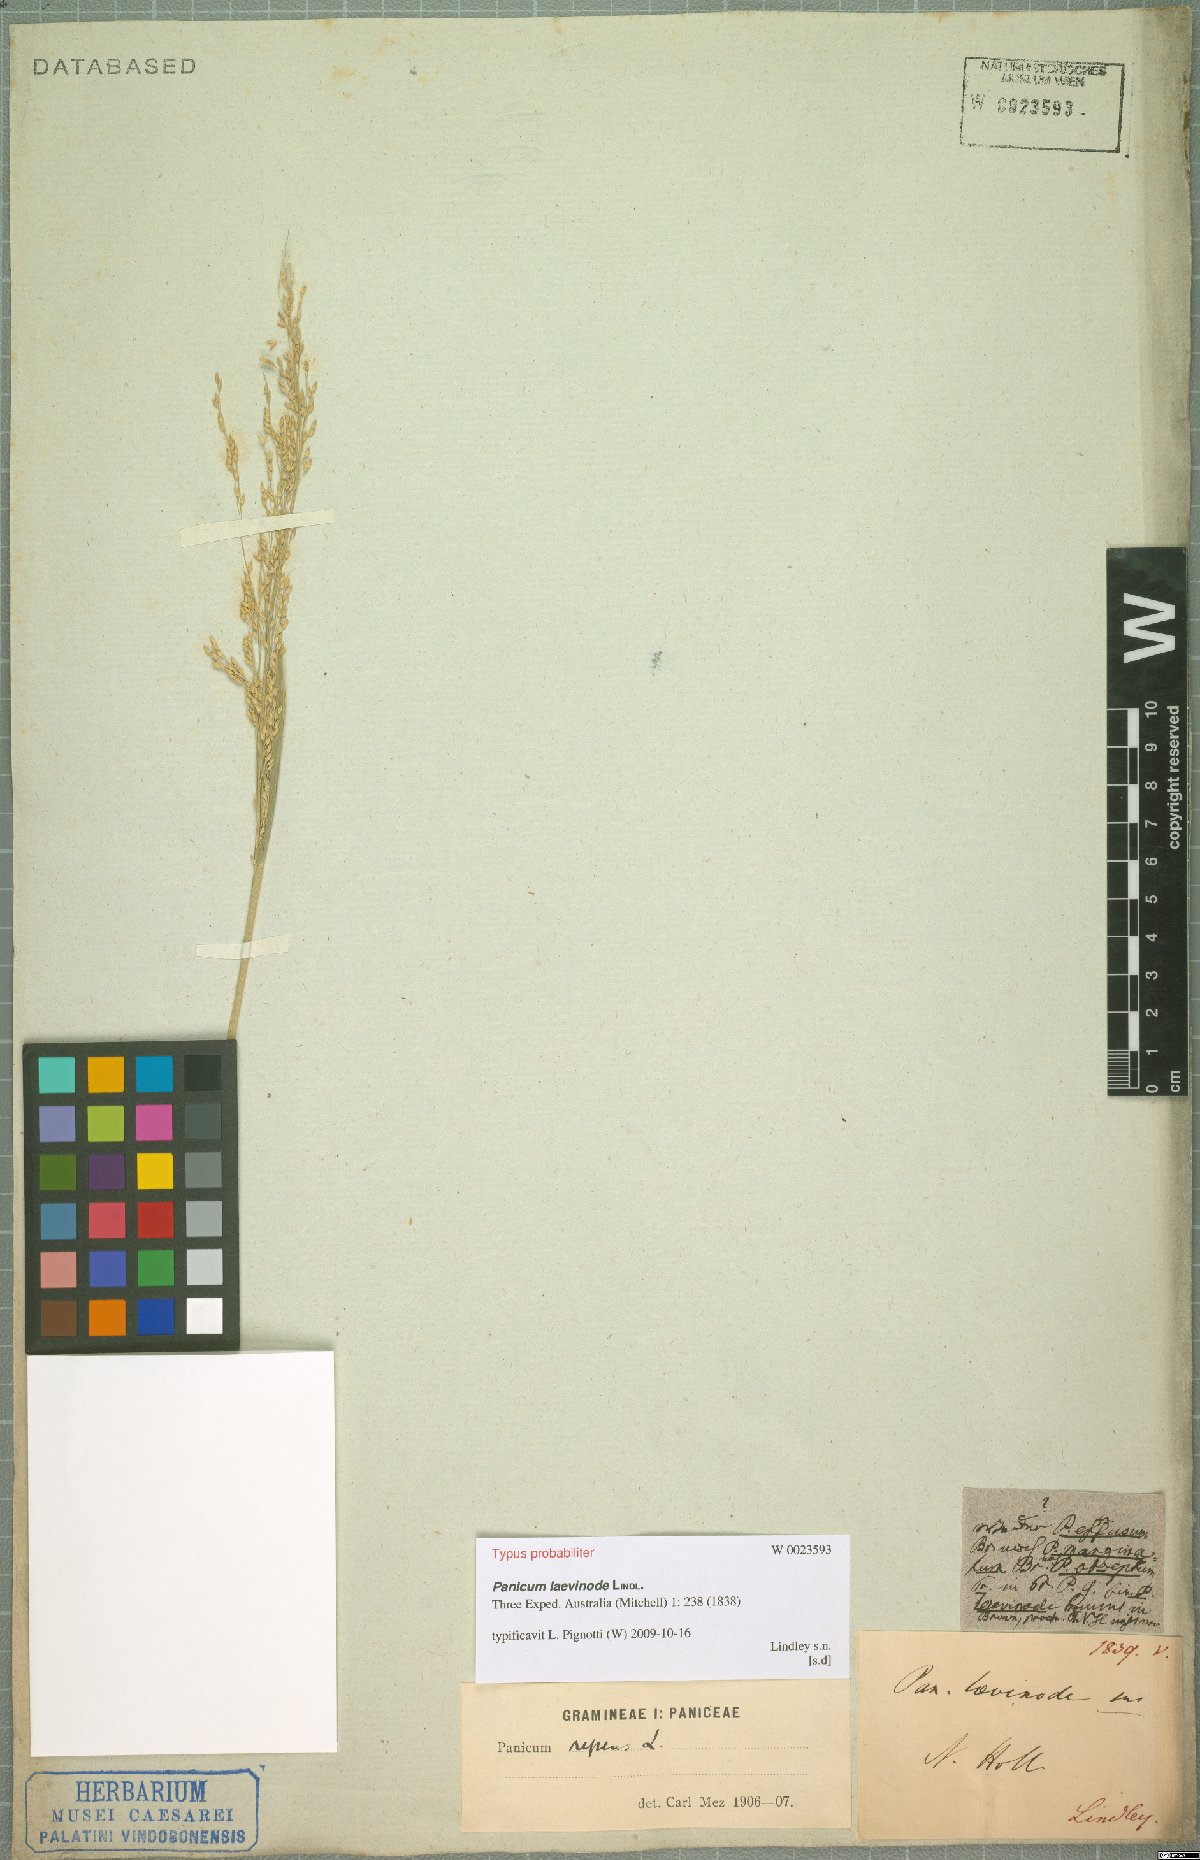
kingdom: Plantae
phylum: Tracheophyta
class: Liliopsida
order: Poales
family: Poaceae
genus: Panicum
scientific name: Panicum laevinode
